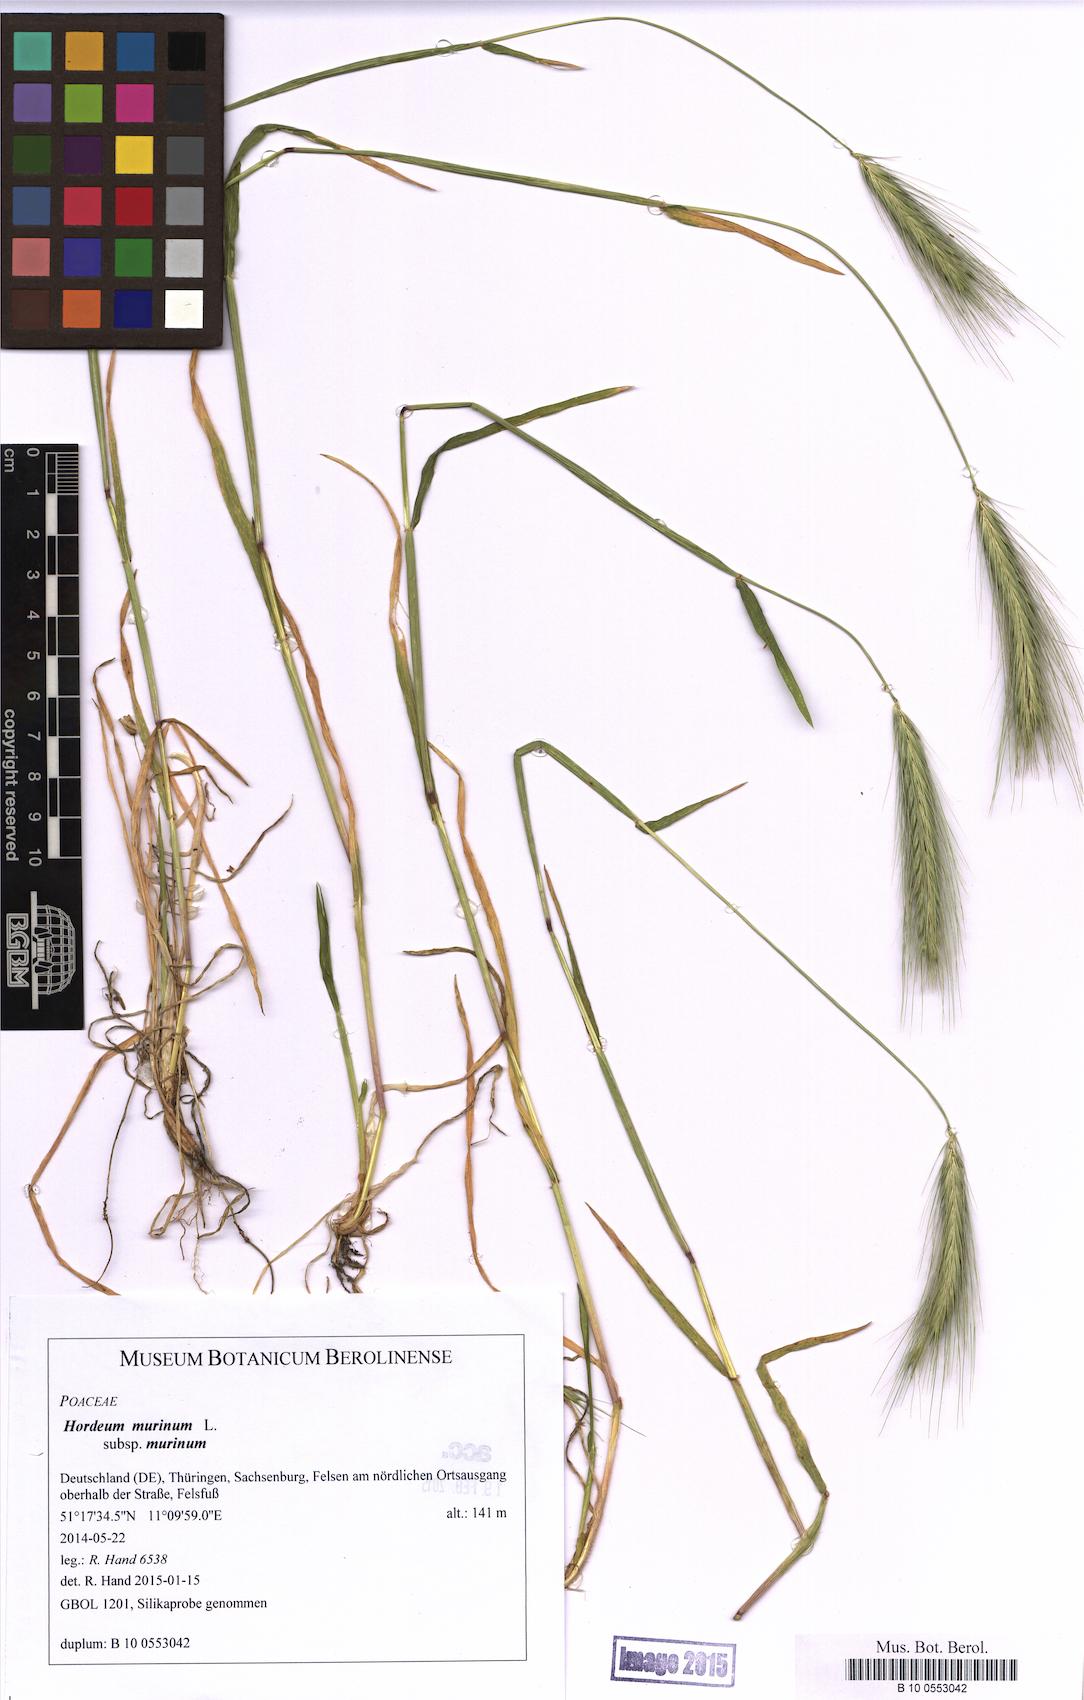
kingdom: Plantae
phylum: Tracheophyta
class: Liliopsida
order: Poales
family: Poaceae
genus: Hordeum
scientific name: Hordeum murinum
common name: Wall barley
